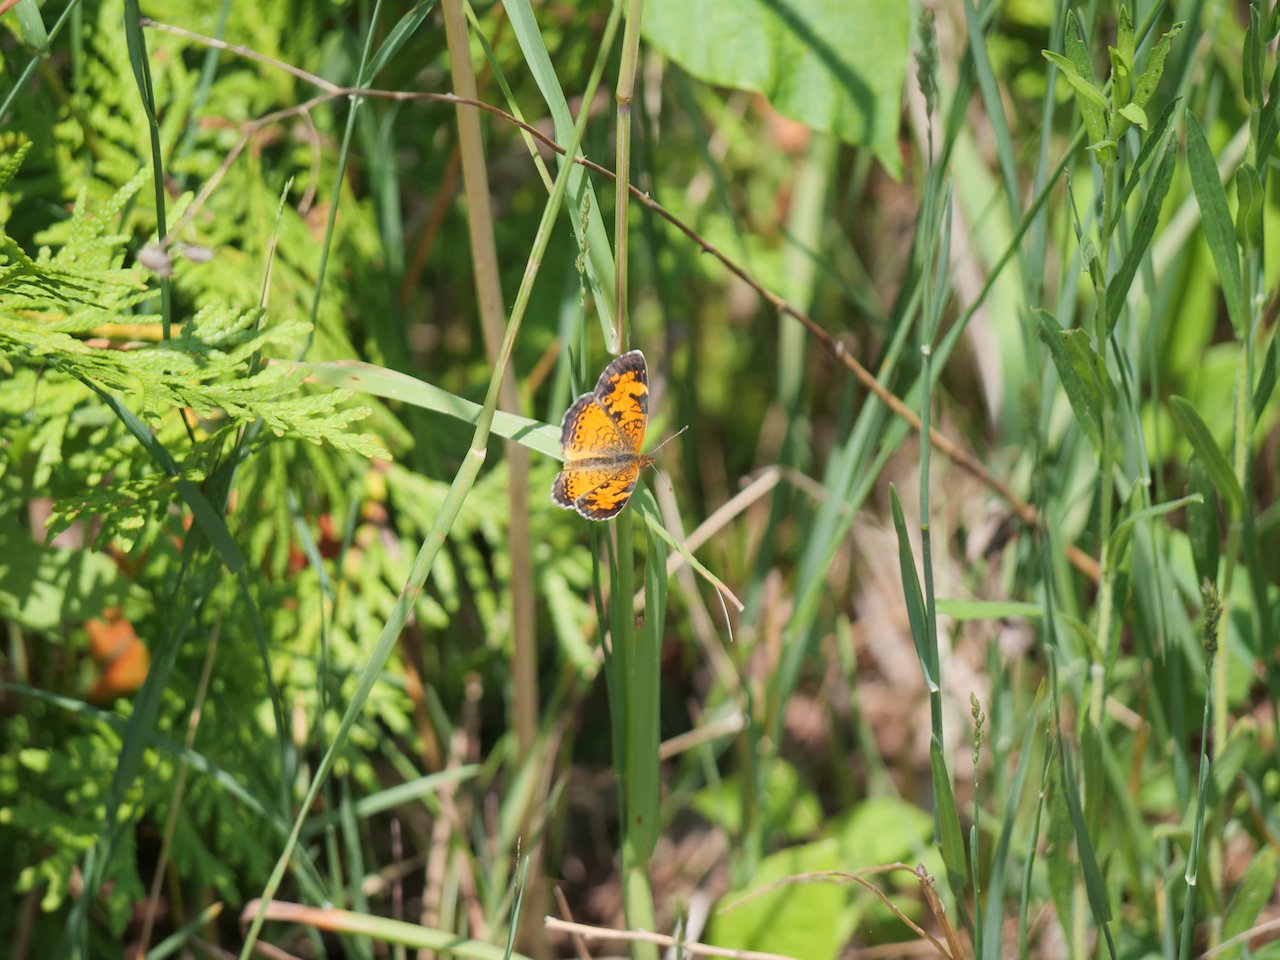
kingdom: Animalia
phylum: Arthropoda
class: Insecta
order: Lepidoptera
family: Nymphalidae
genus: Phyciodes
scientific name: Phyciodes tharos
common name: Northern Crescent
